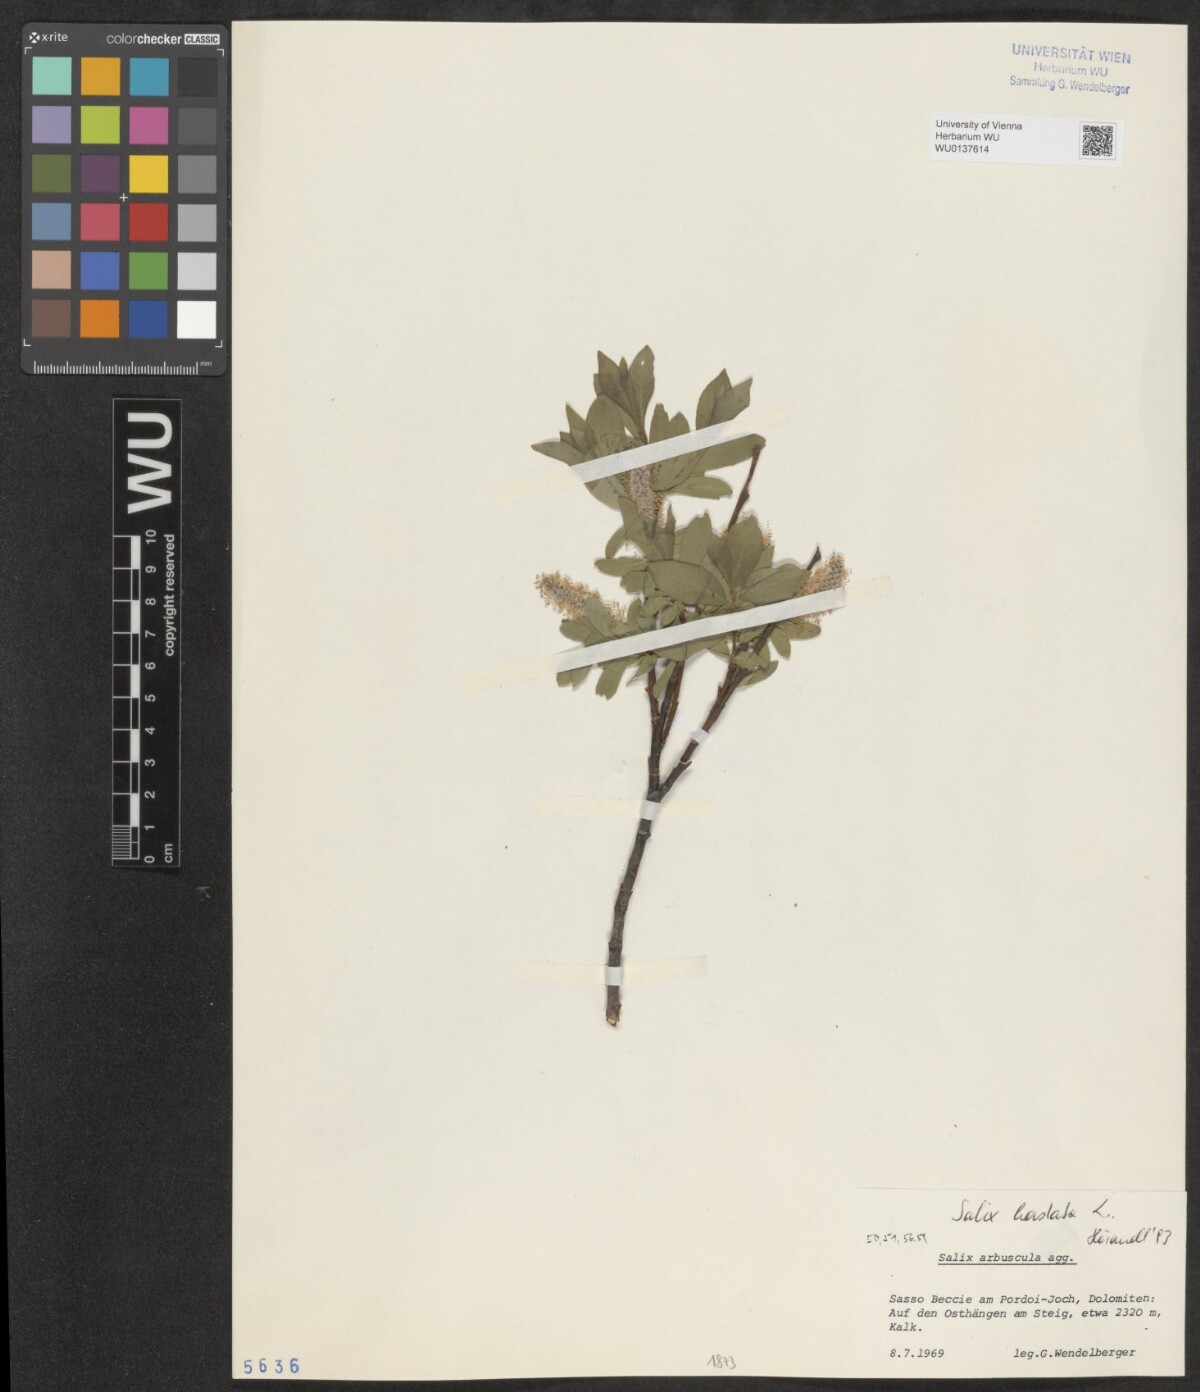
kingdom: Plantae
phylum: Tracheophyta
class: Magnoliopsida
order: Malpighiales
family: Salicaceae
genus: Salix
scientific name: Salix hastata
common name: Halberd willow
